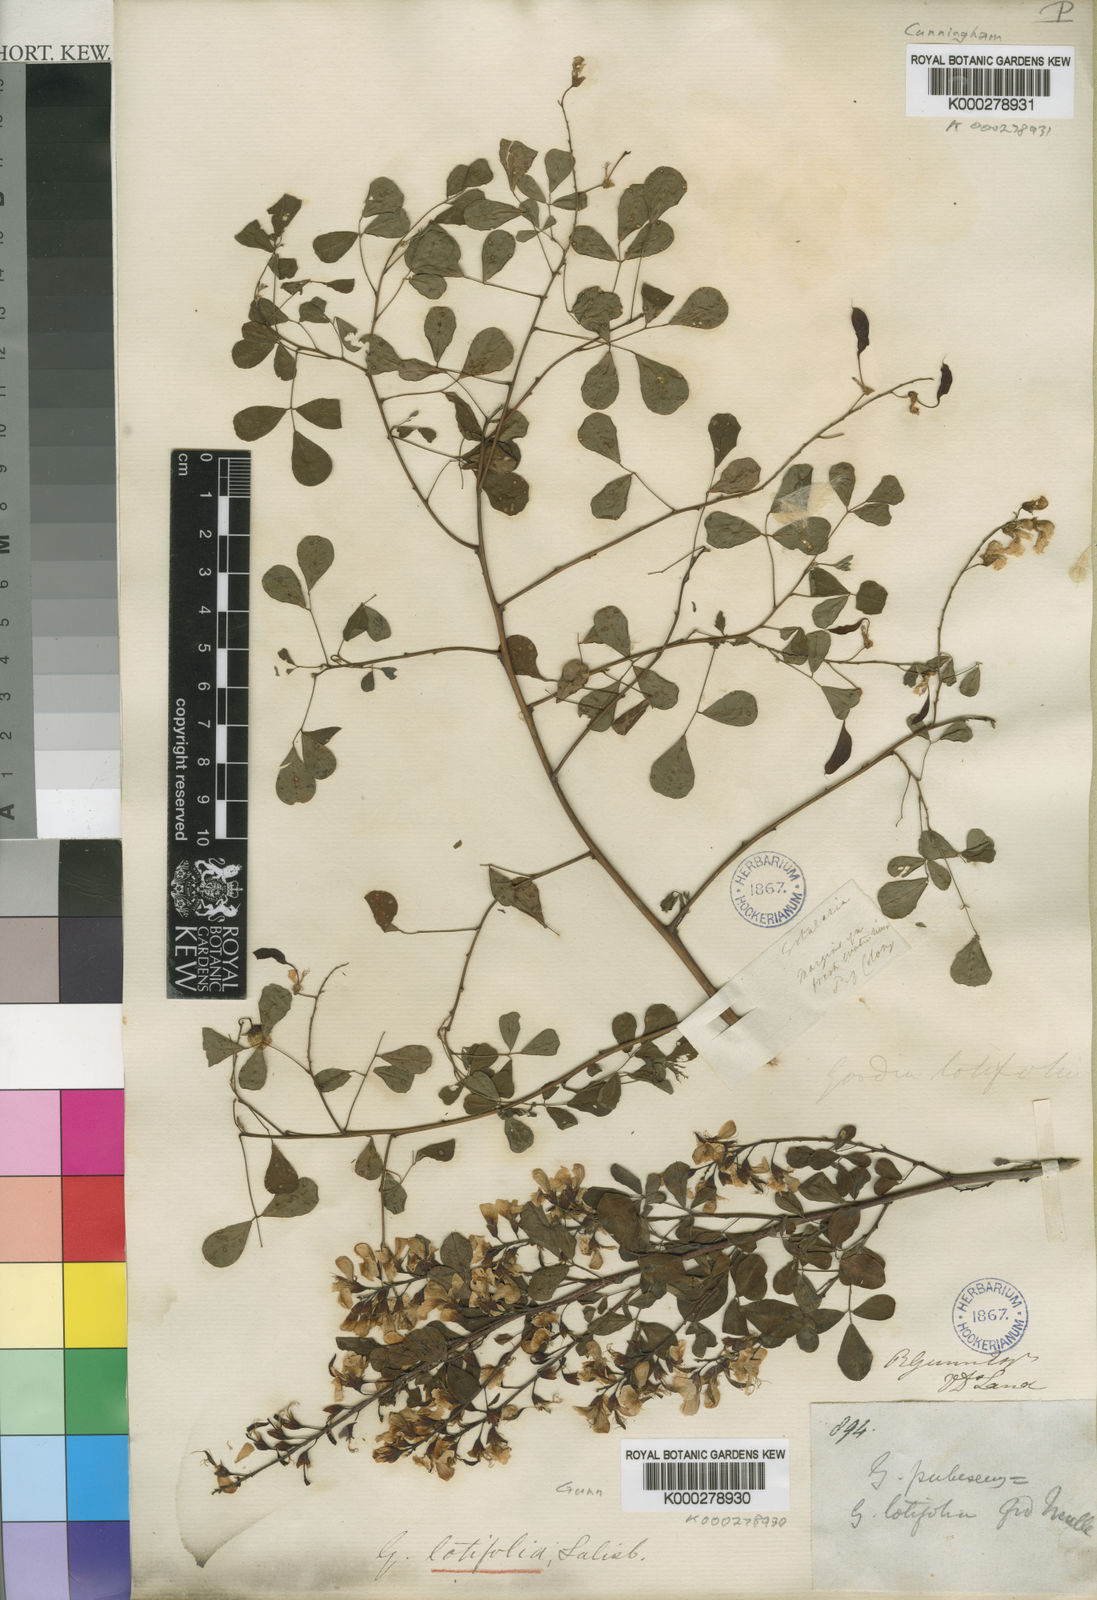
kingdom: Plantae
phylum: Tracheophyta
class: Magnoliopsida
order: Fabales
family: Fabaceae
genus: Goodia
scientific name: Goodia lotifolia
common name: Cloverleaf-poison
